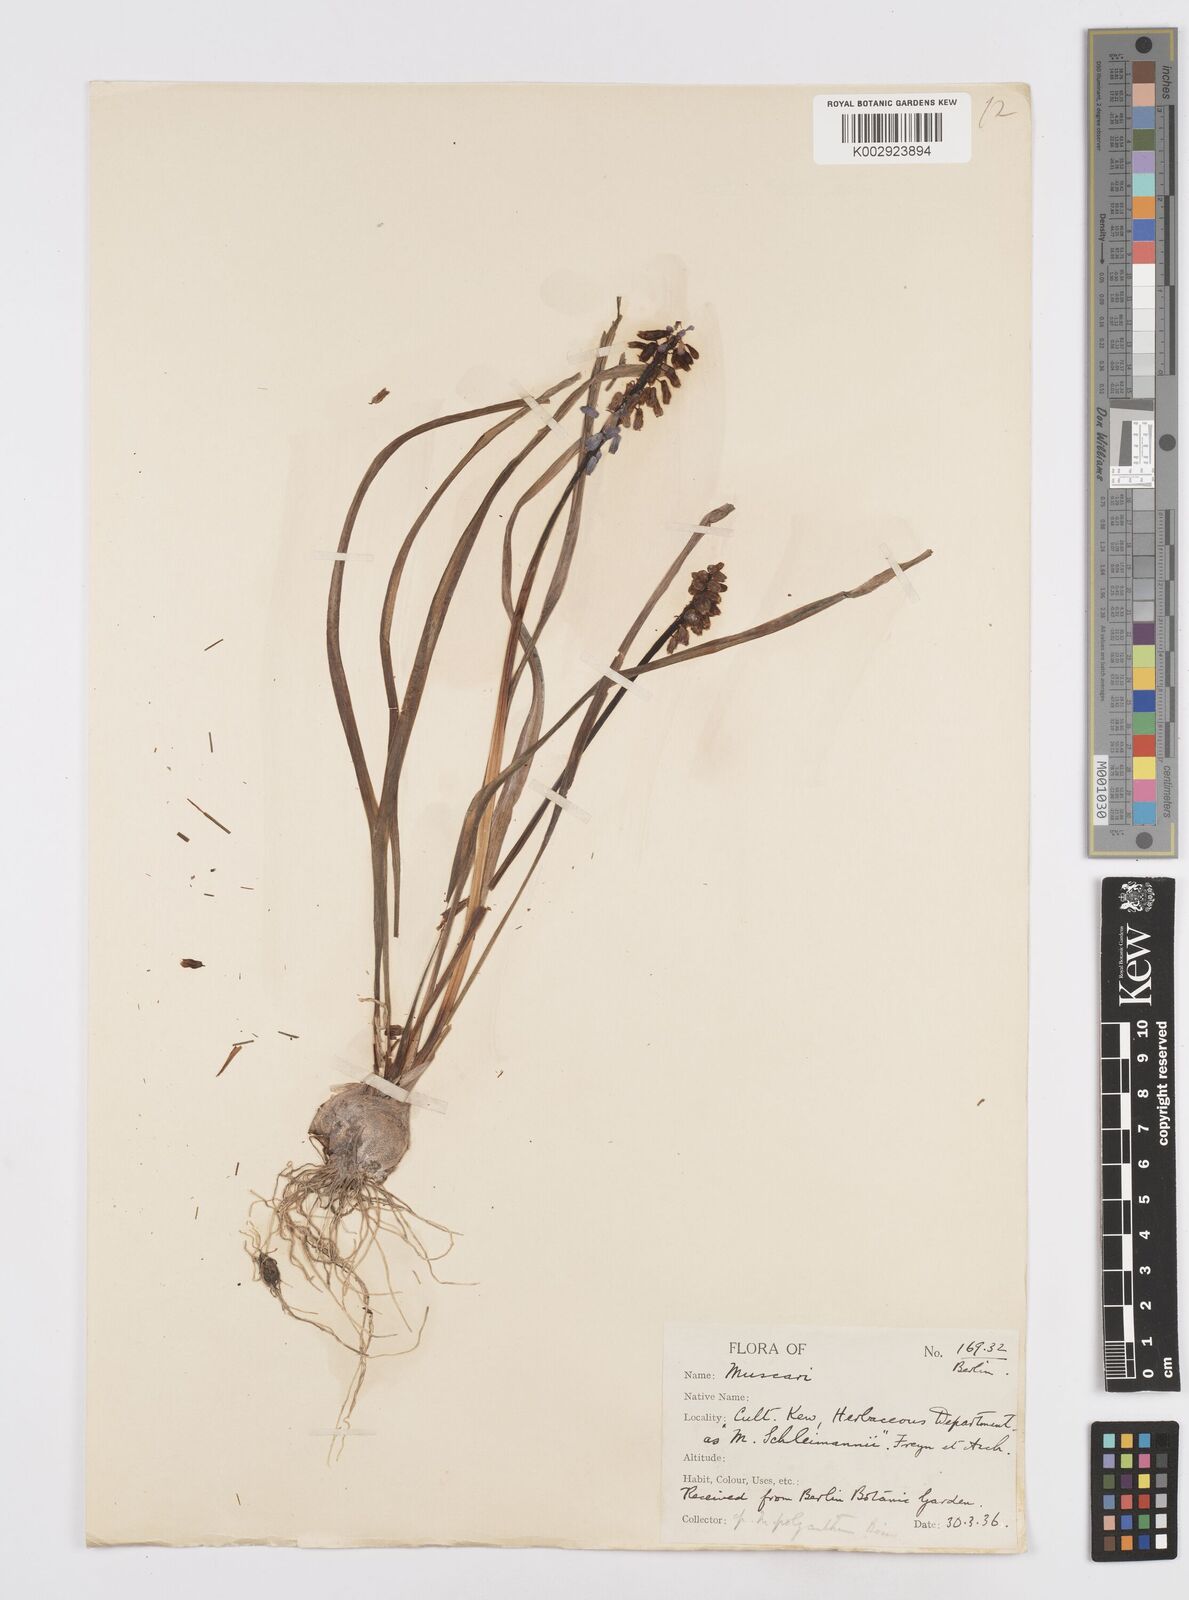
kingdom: Plantae
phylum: Tracheophyta
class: Liliopsida
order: Asparagales
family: Asparagaceae
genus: Muscari
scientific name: Muscari
